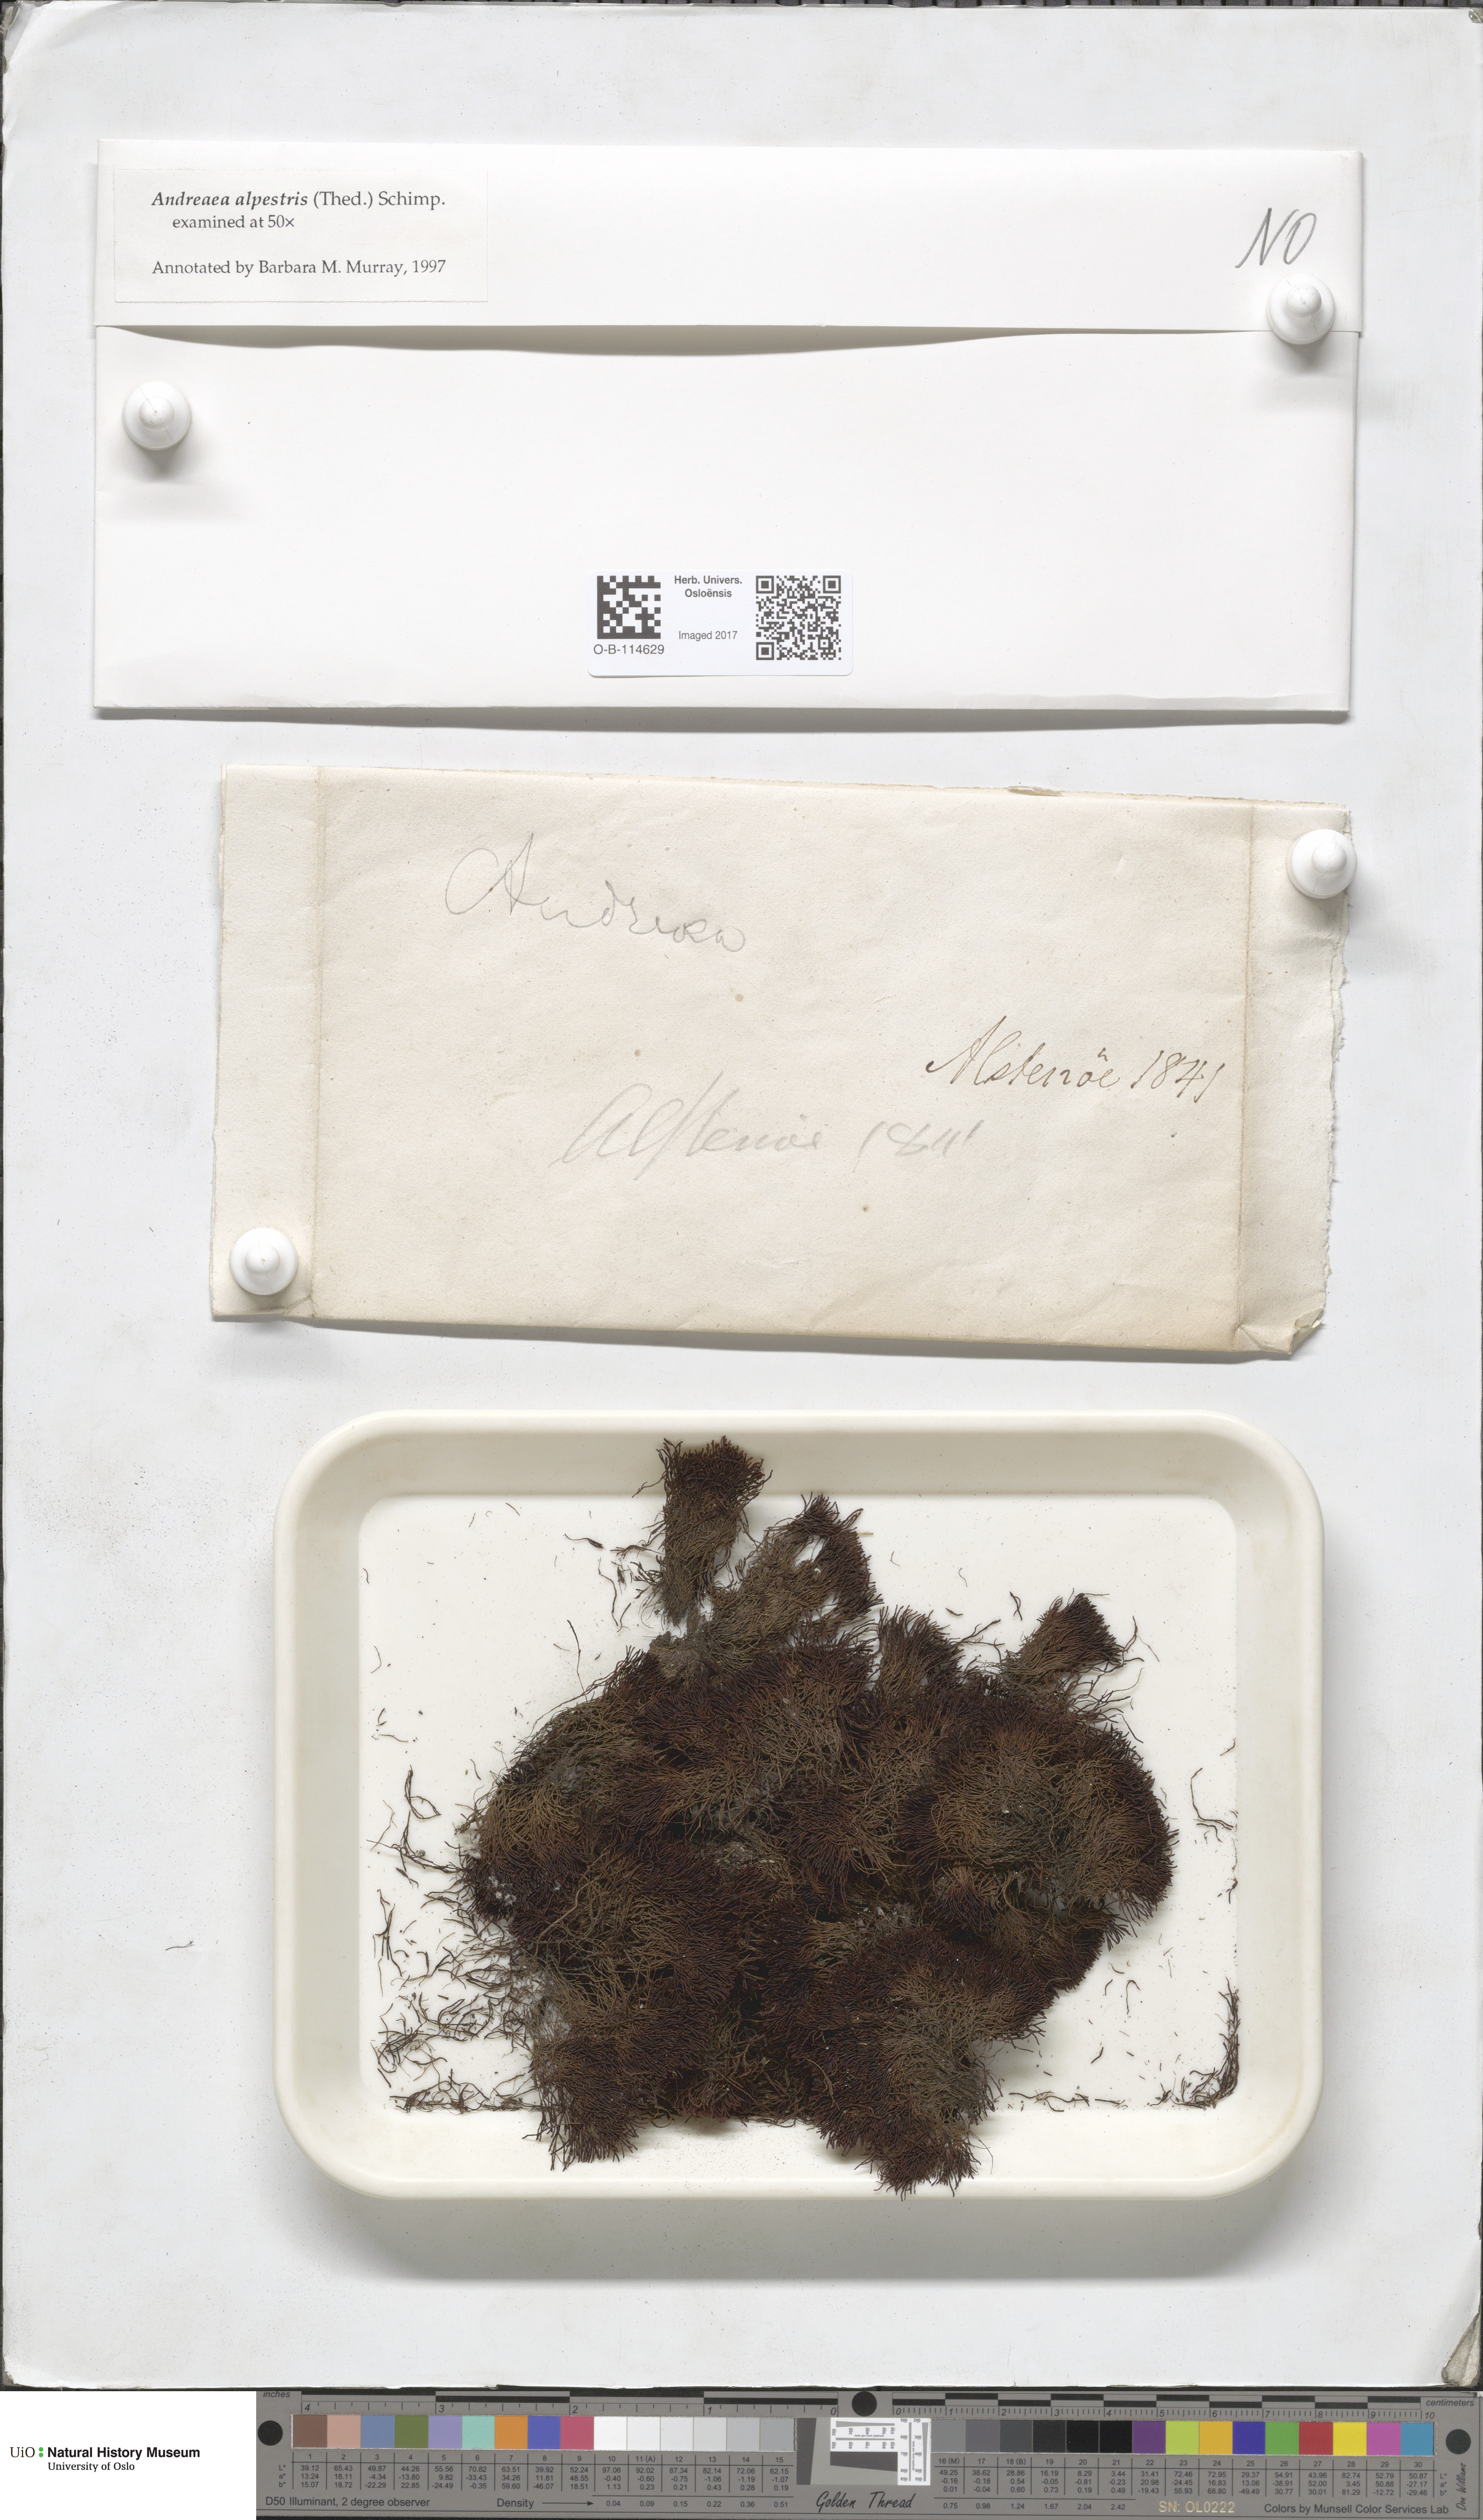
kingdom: Plantae
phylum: Bryophyta
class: Andreaeopsida
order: Andreaeales
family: Andreaeaceae
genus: Andreaea
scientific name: Andreaea alpestris
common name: Slender rock-moss
